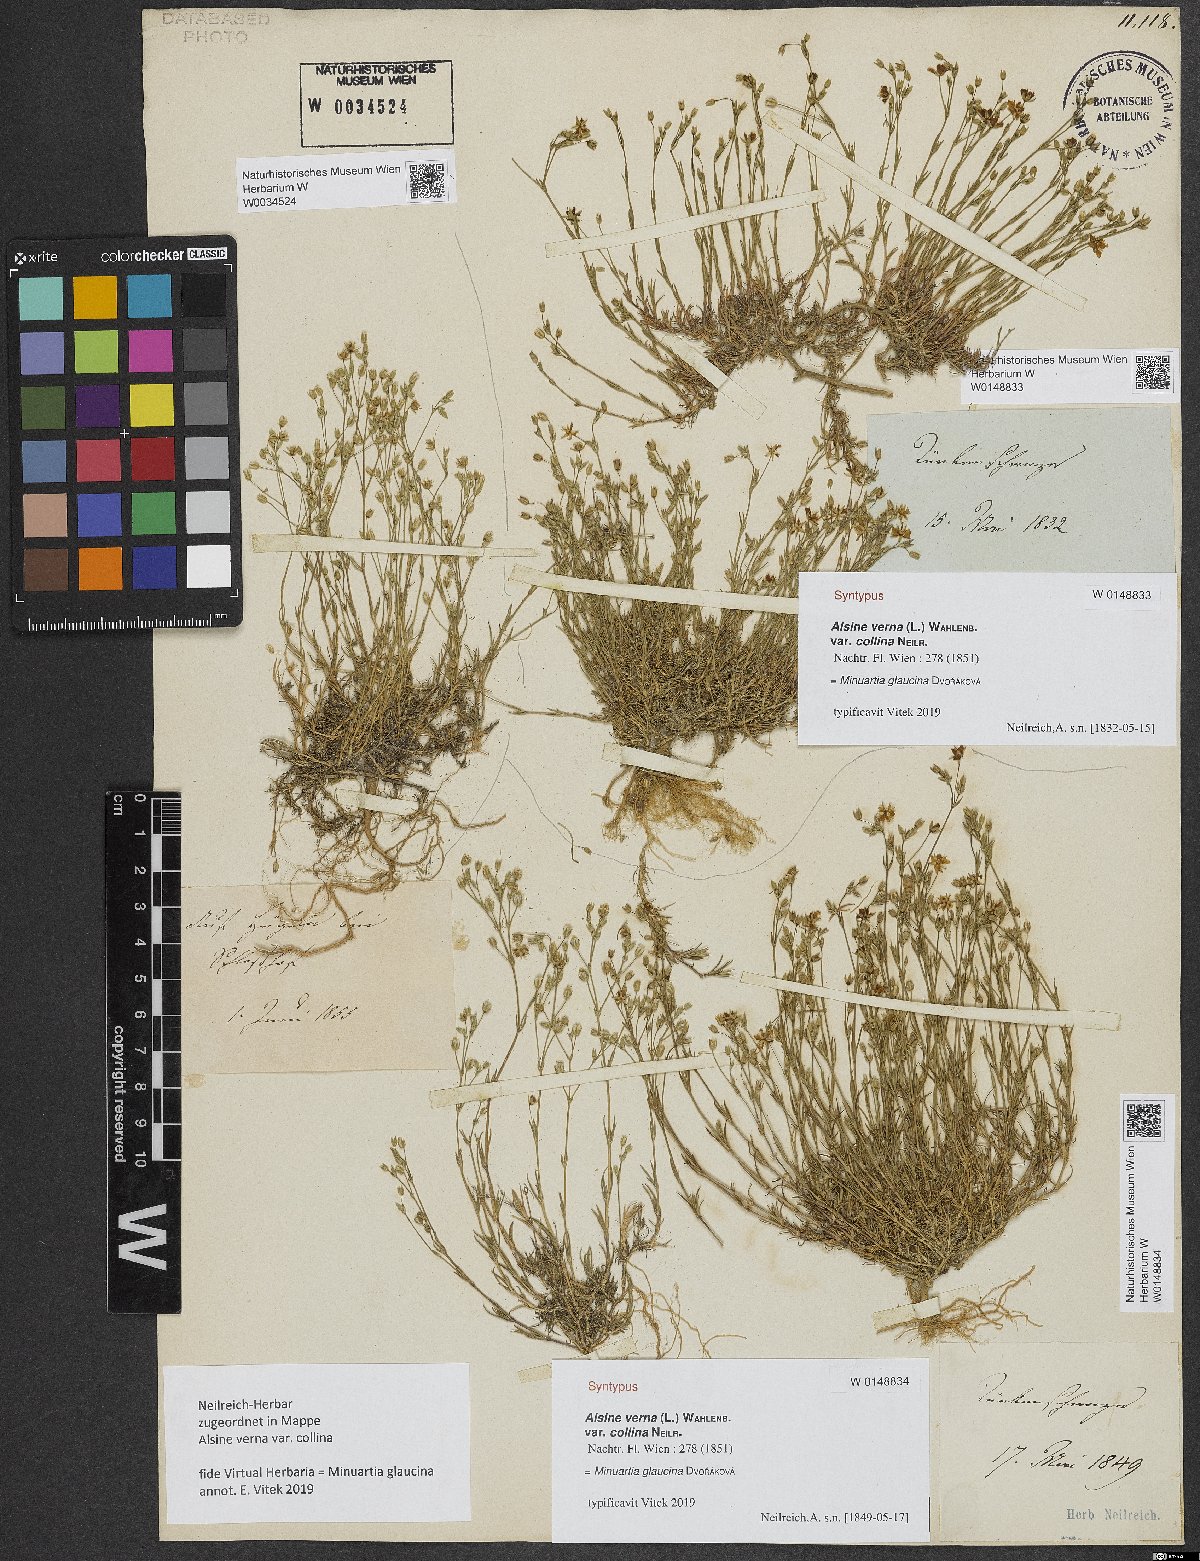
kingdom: Plantae
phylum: Tracheophyta
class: Magnoliopsida
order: Caryophyllales
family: Caryophyllaceae
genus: Sabulina
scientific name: Sabulina glaucina
